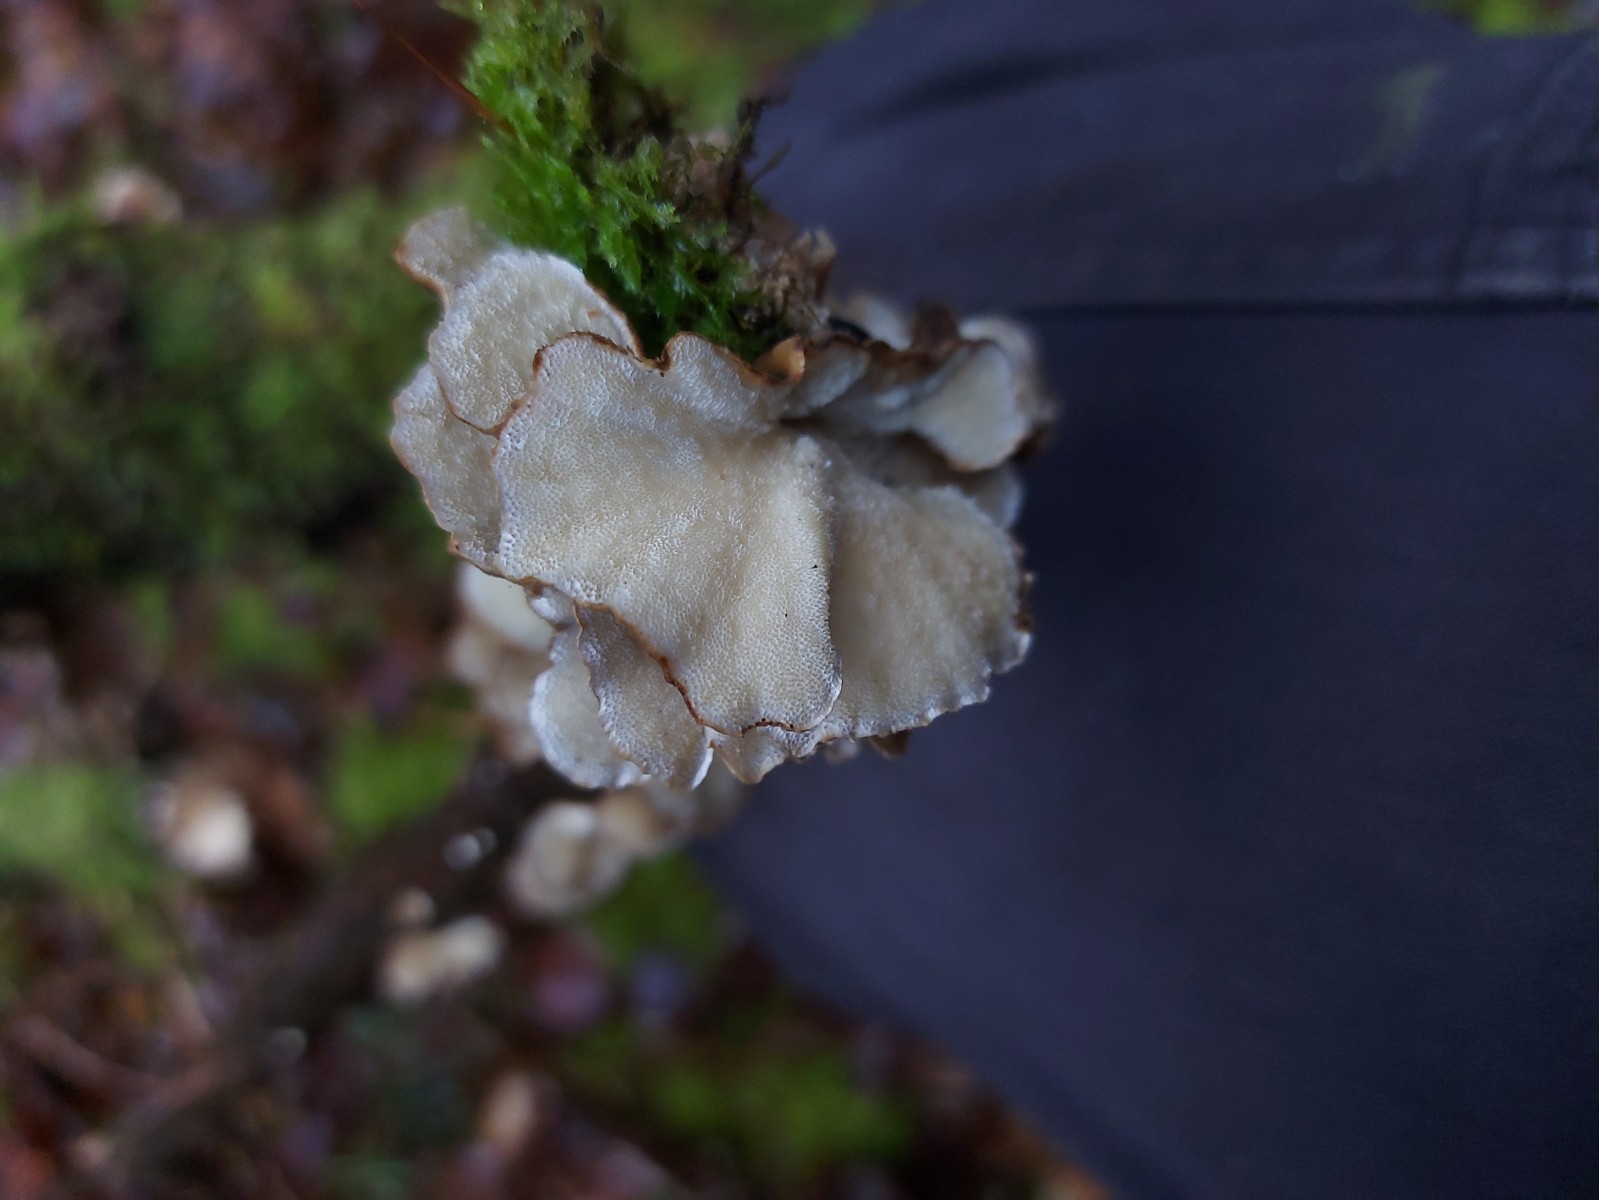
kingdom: Fungi
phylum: Basidiomycota
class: Agaricomycetes
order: Polyporales
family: Polyporaceae
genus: Trametes
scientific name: Trametes versicolor
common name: broget læderporesvamp
